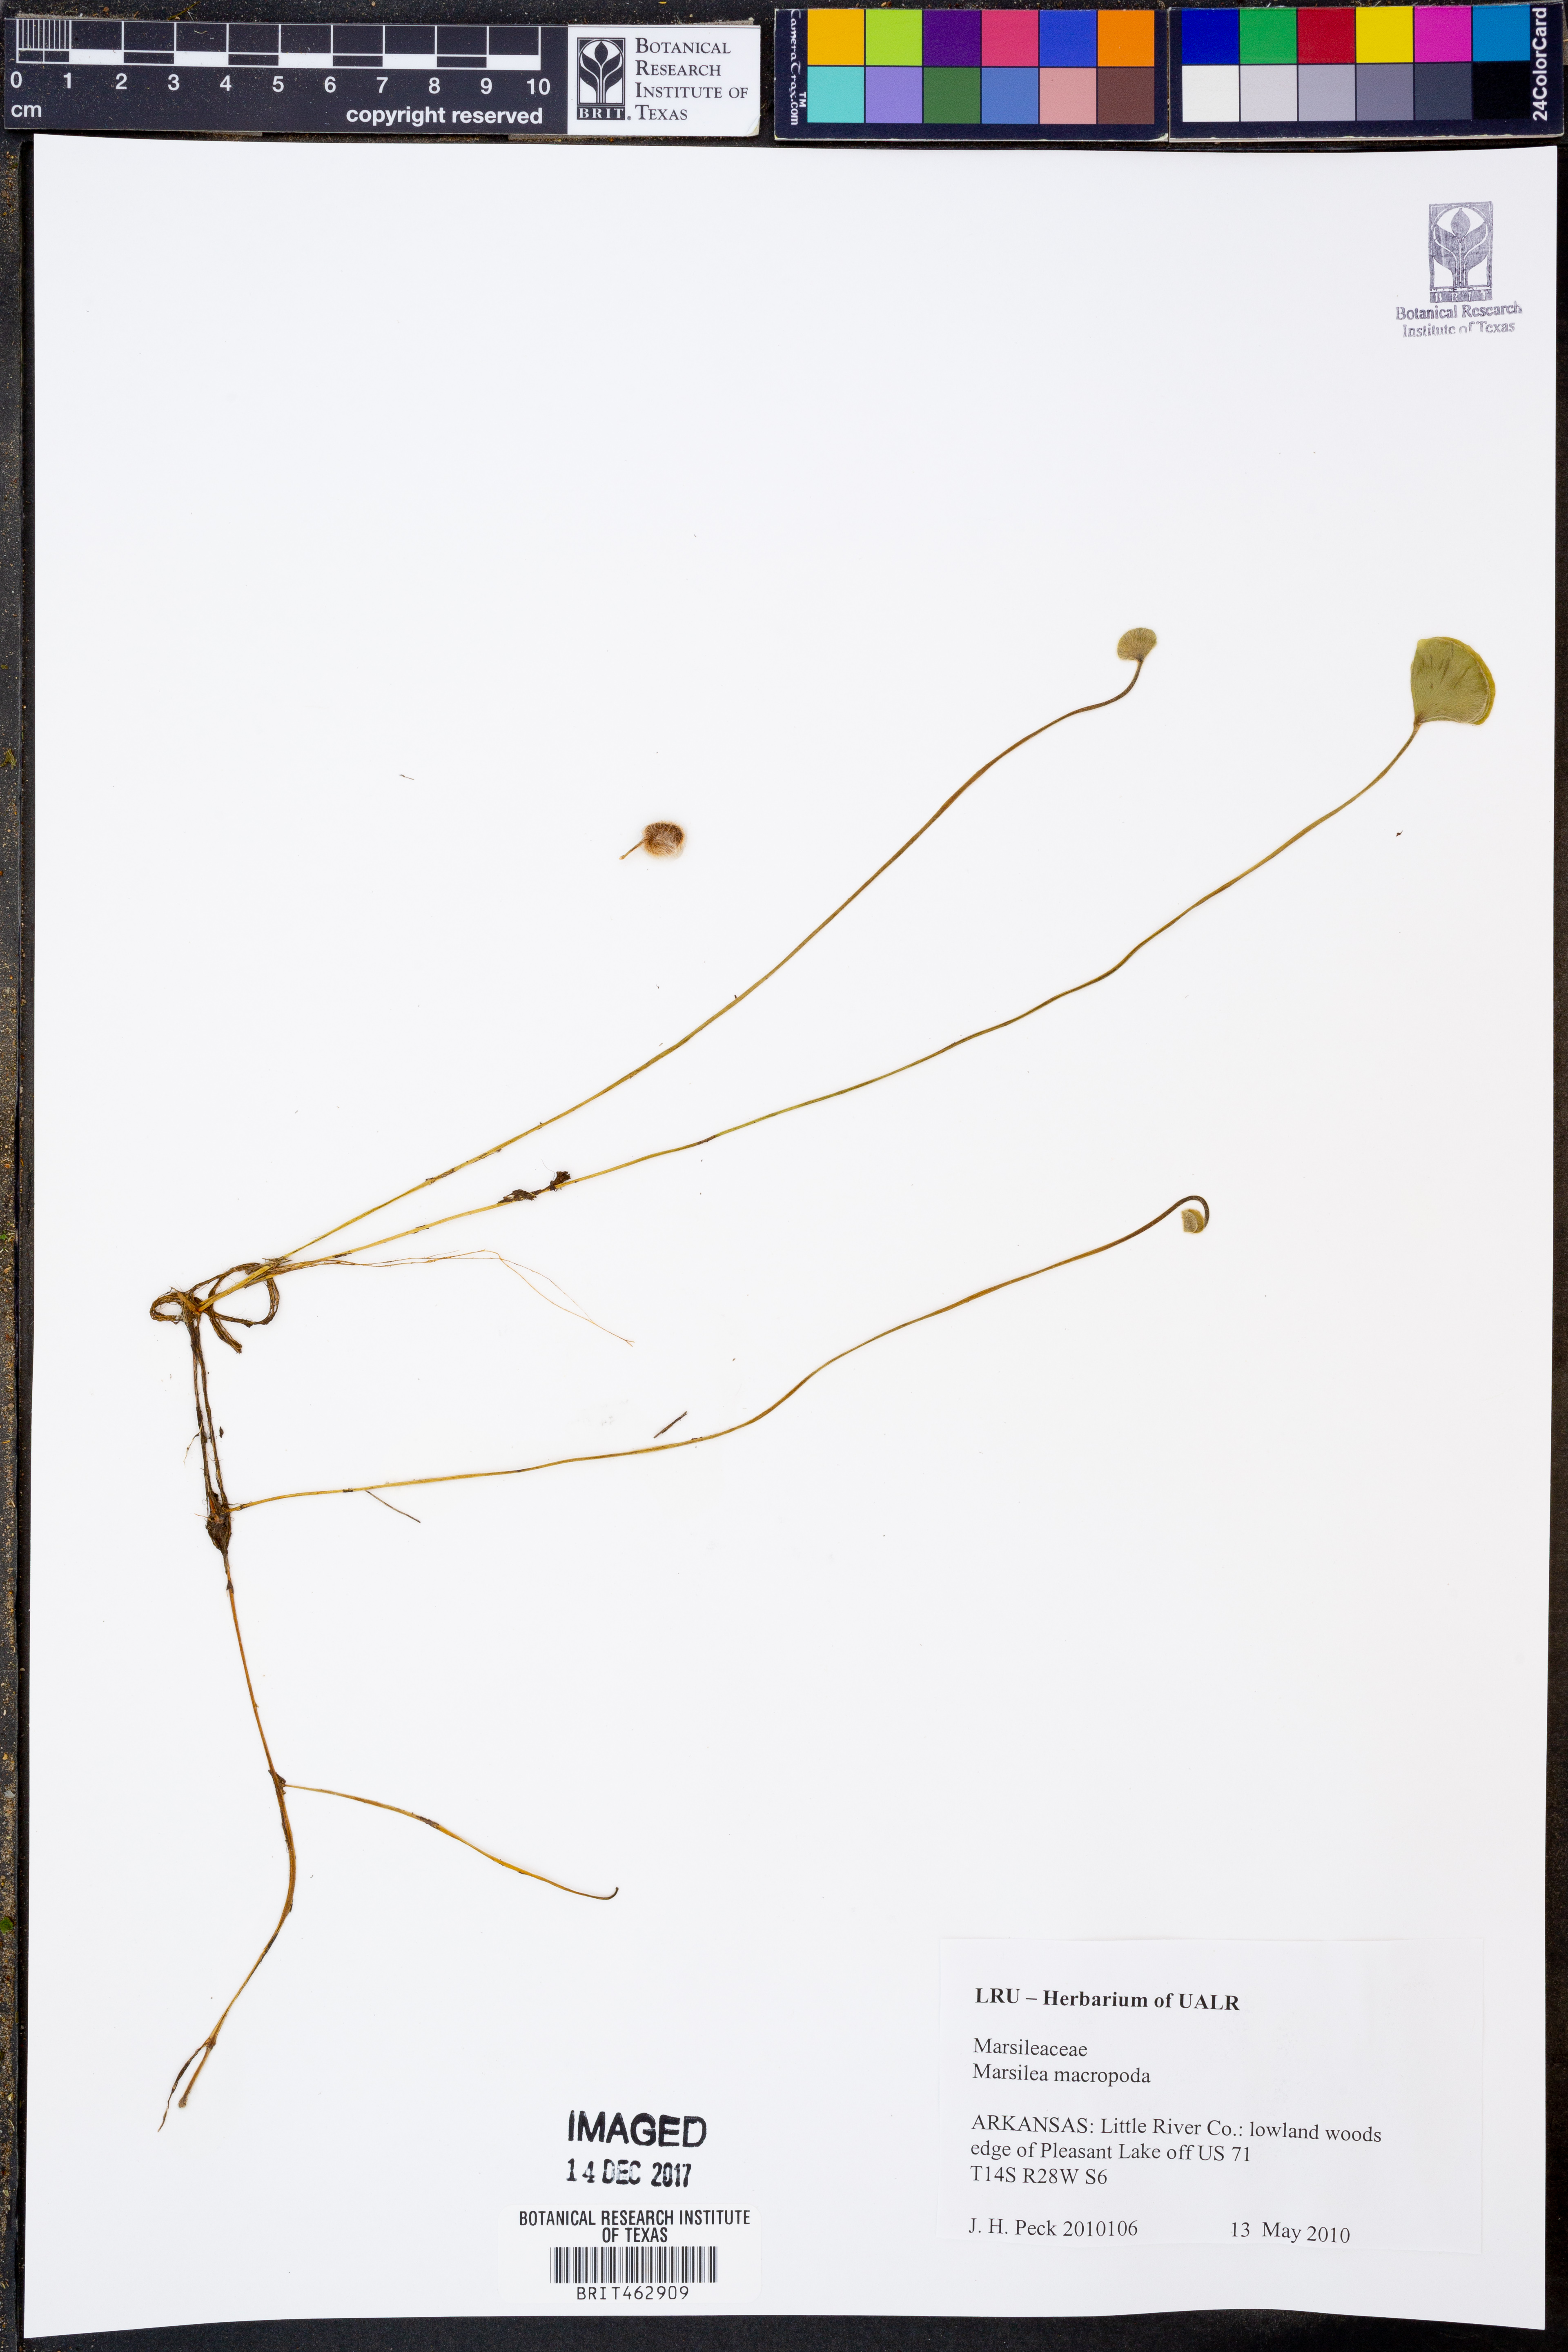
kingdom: Plantae
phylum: Tracheophyta
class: Polypodiopsida
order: Salviniales
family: Marsileaceae
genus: Marsilea
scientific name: Marsilea macropoda
